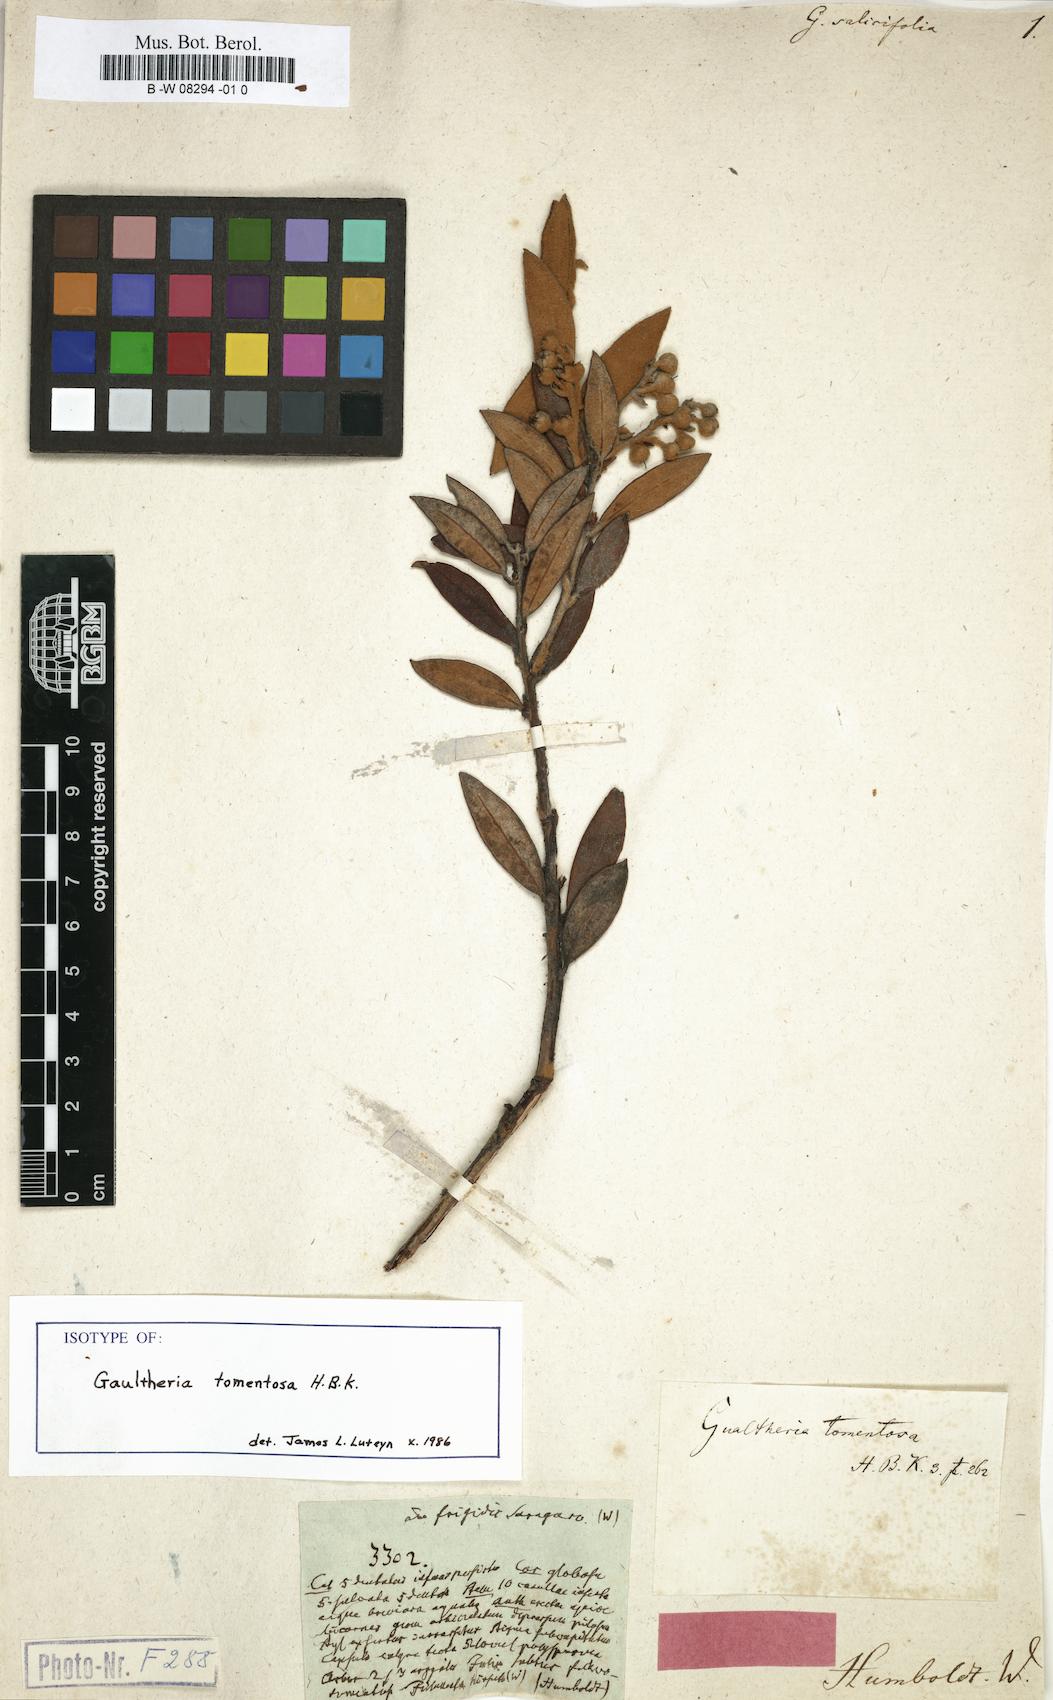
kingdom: Plantae
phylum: Tracheophyta
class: Magnoliopsida
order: Ericales
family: Ericaceae
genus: Gaultheria
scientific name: Gaultheria tenuifolia
